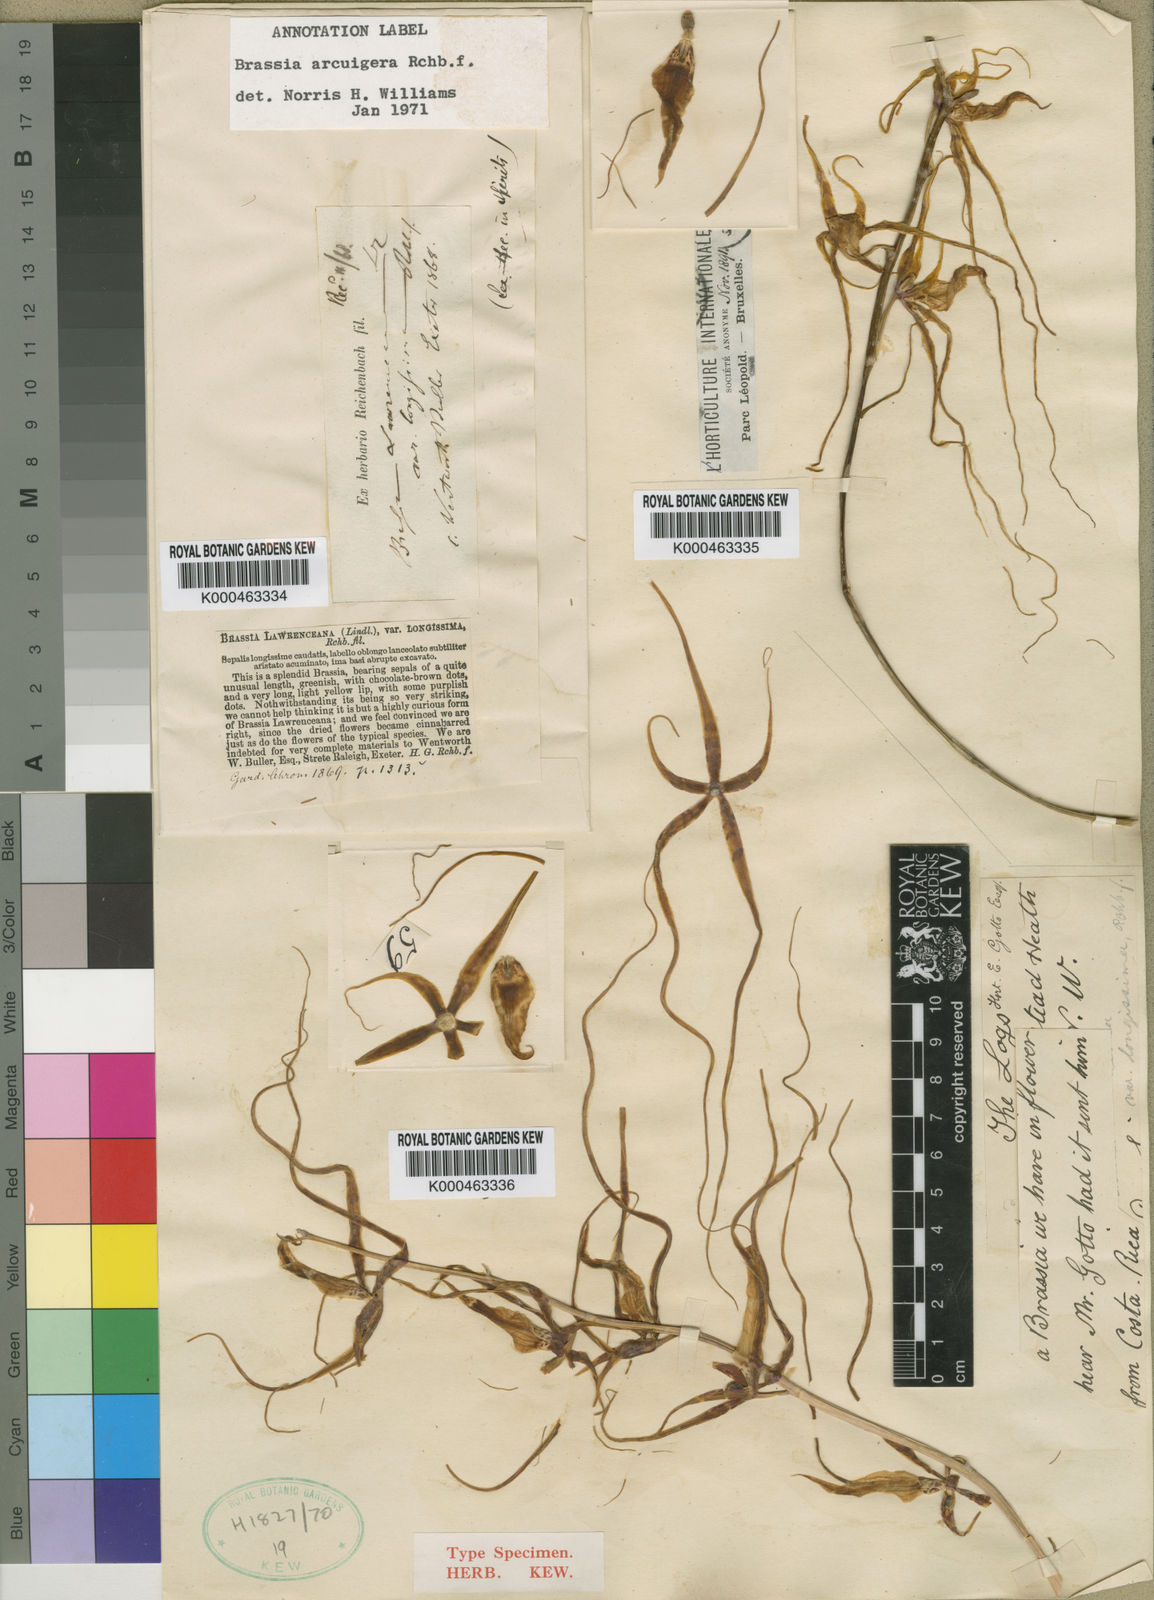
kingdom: Plantae
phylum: Tracheophyta
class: Liliopsida
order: Asparagales
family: Orchidaceae
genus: Brassia
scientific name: Brassia gireoudiana
